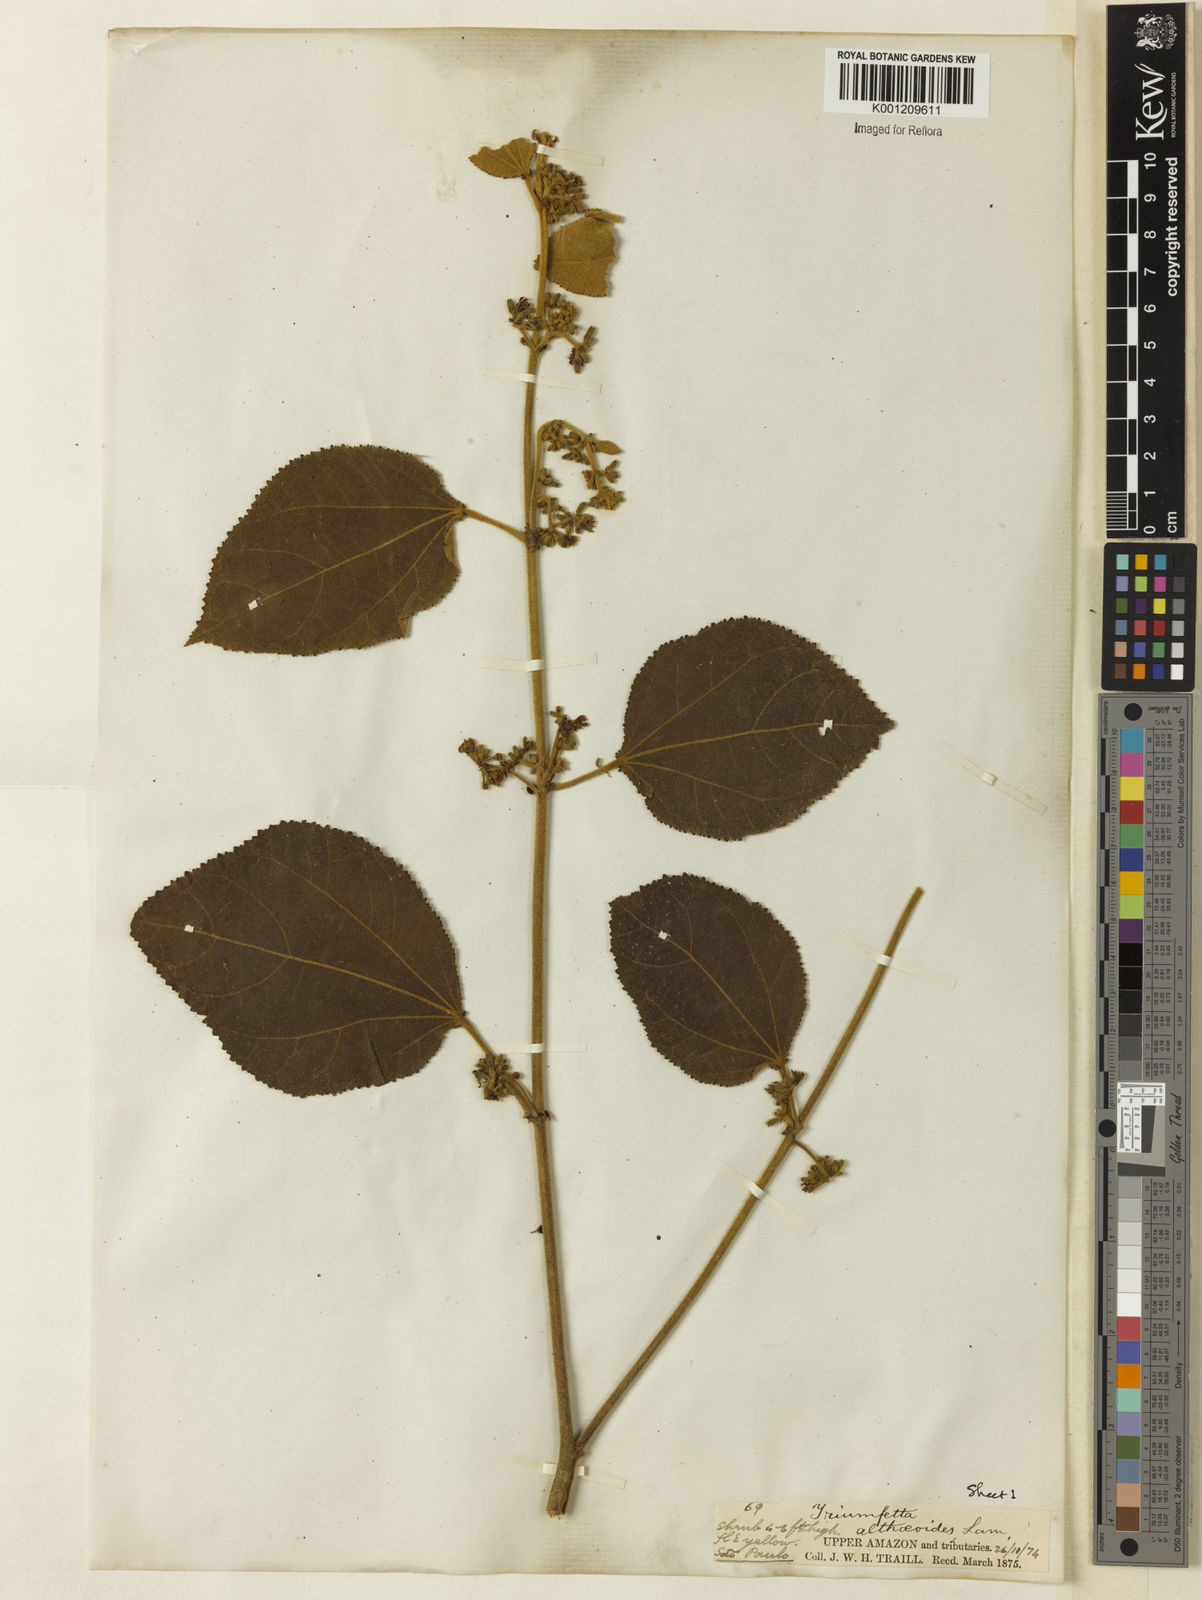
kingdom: Plantae
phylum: Tracheophyta
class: Magnoliopsida
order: Malvales
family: Malvaceae
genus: Triumfetta
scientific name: Triumfetta
